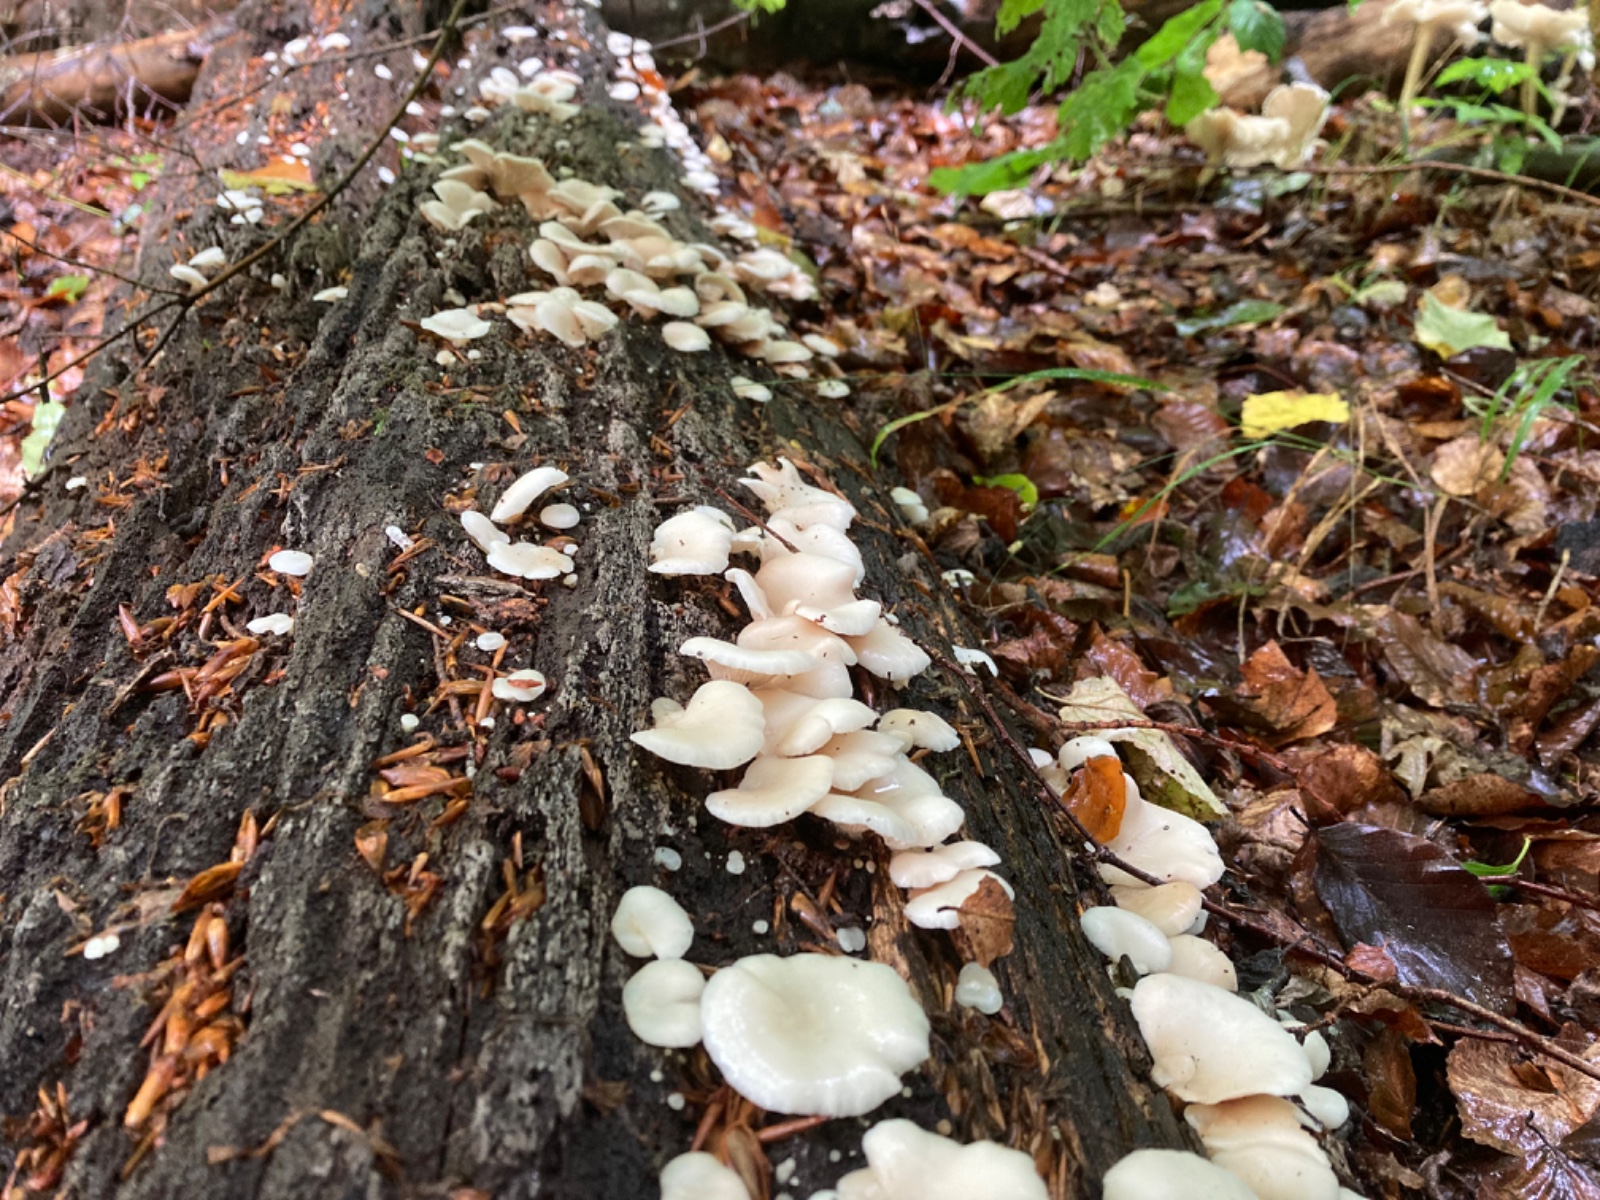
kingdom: Fungi
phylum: Basidiomycota
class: Agaricomycetes
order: Agaricales
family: Crepidotaceae
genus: Crepidotus
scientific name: Crepidotus applanatus
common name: tvefarvet muslingesvamp
